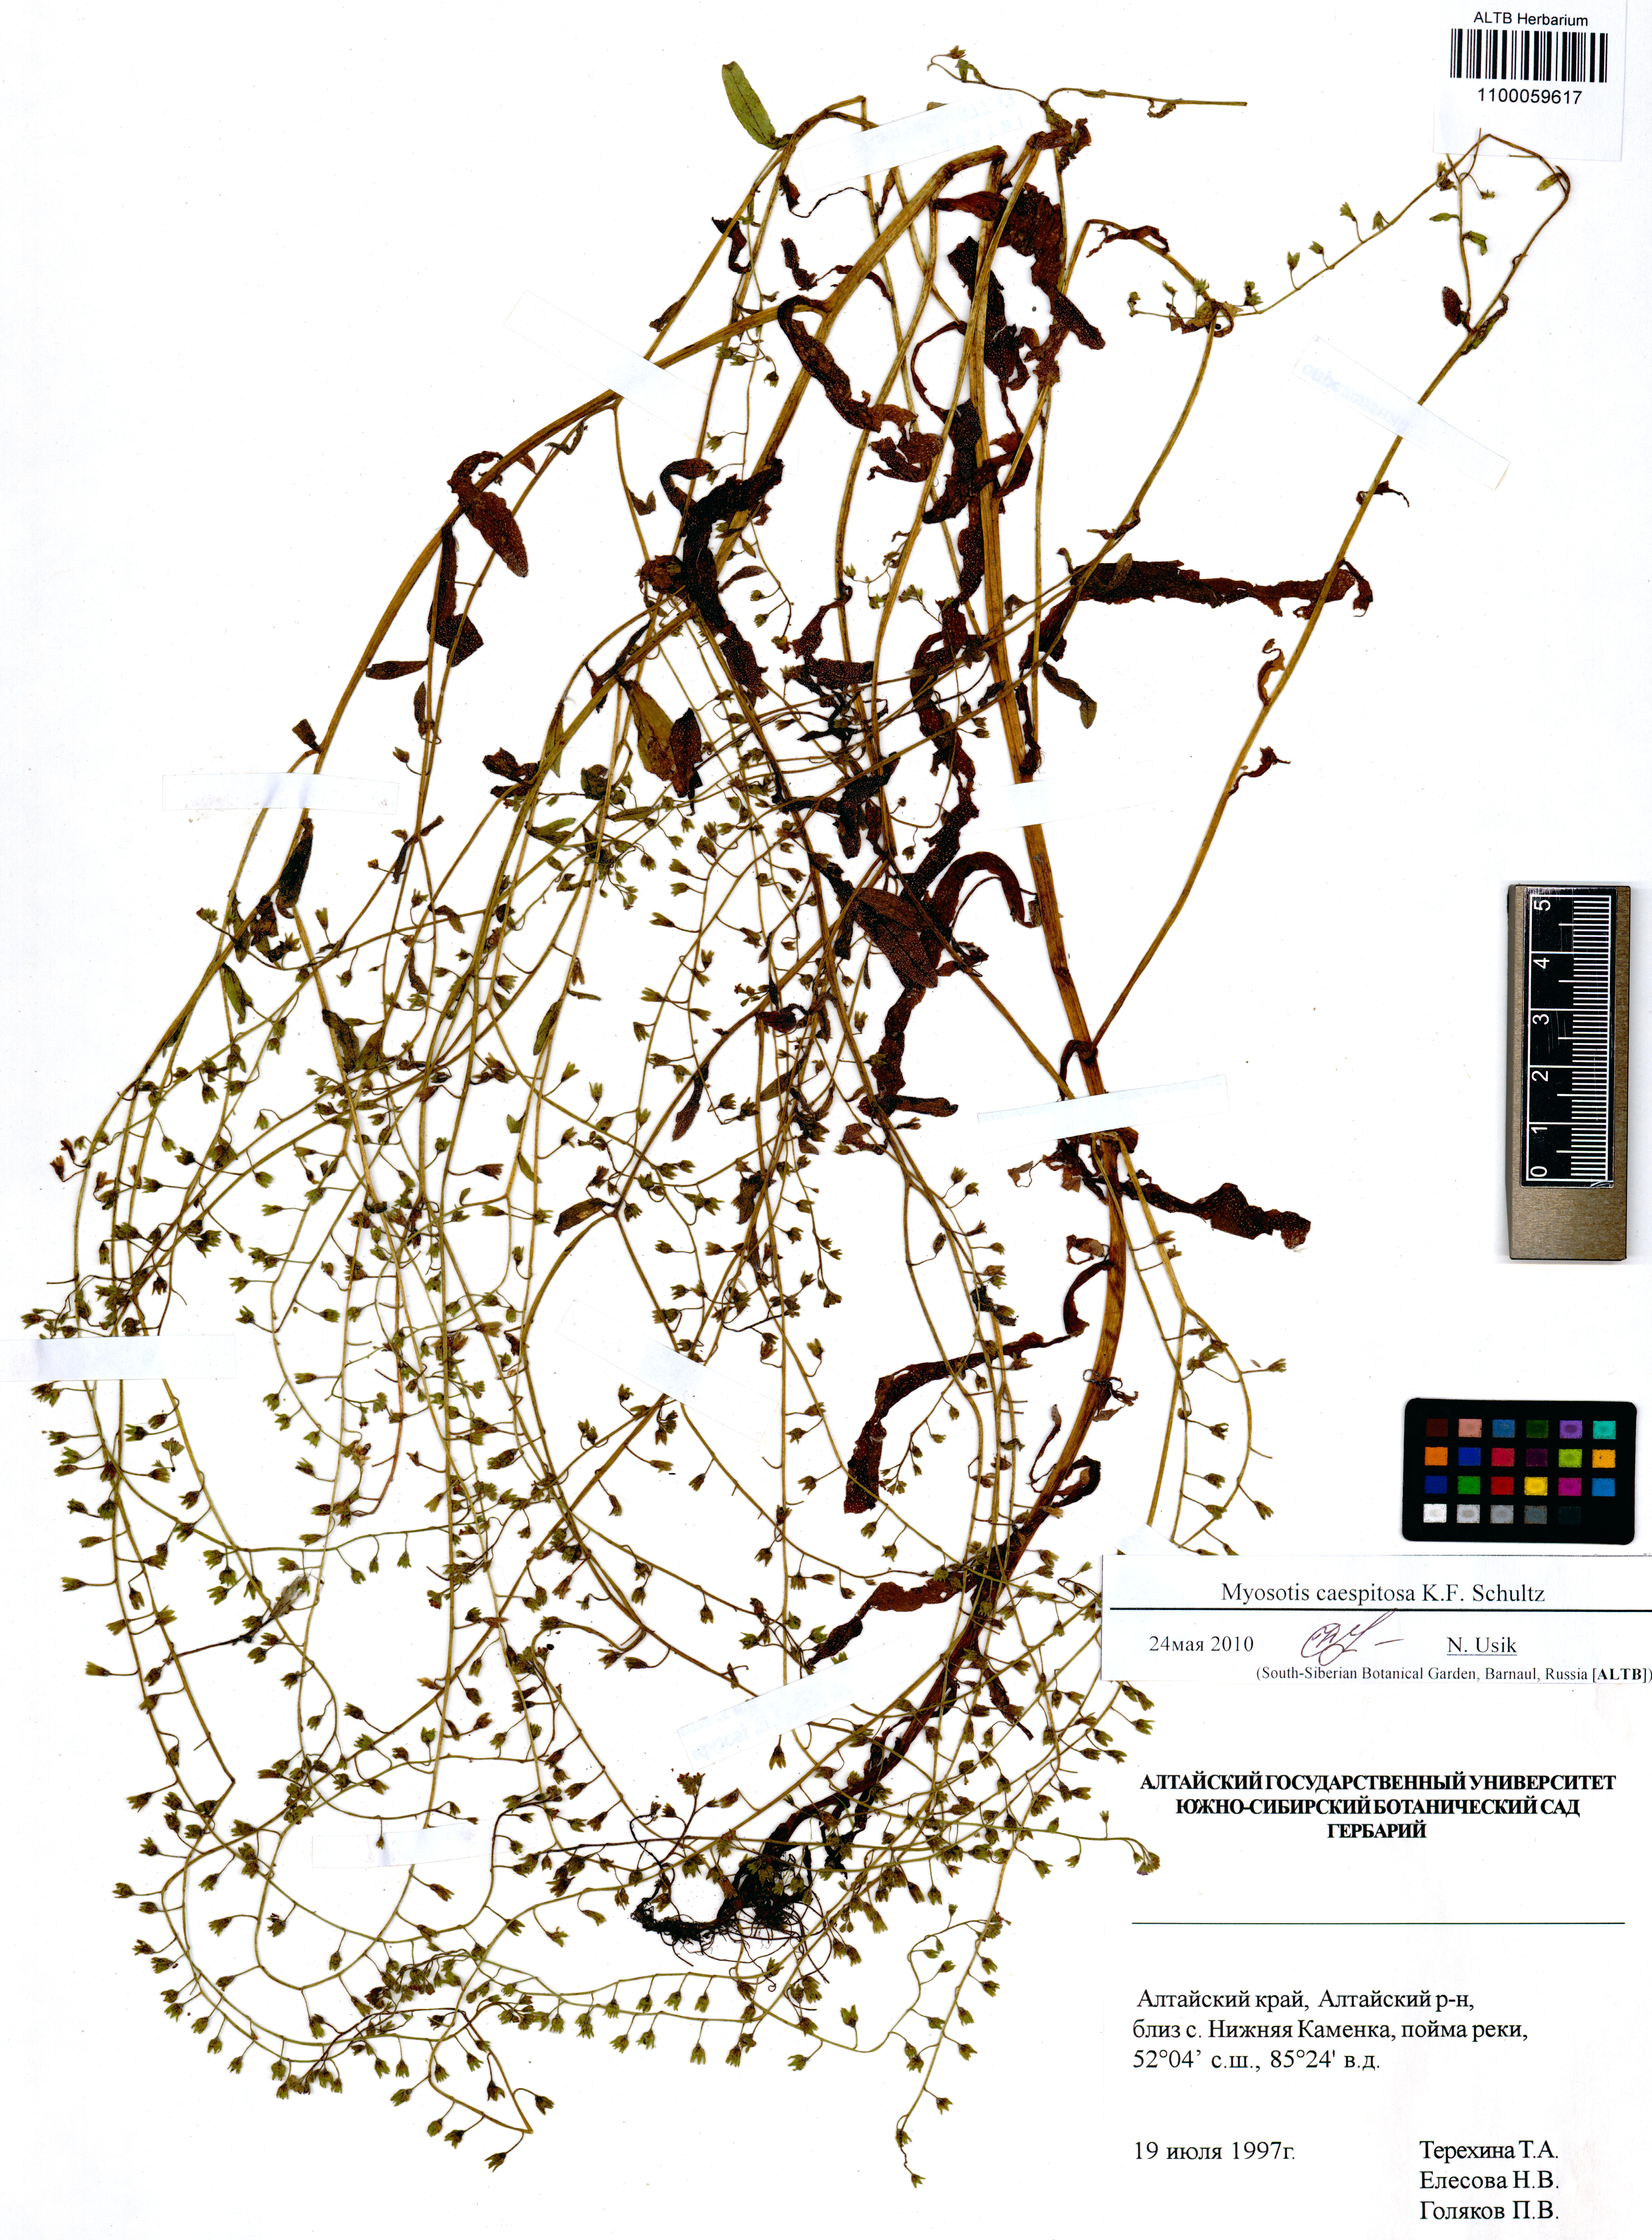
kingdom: Plantae
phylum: Tracheophyta
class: Magnoliopsida
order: Boraginales
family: Boraginaceae
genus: Myosotis
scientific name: Myosotis laxa
